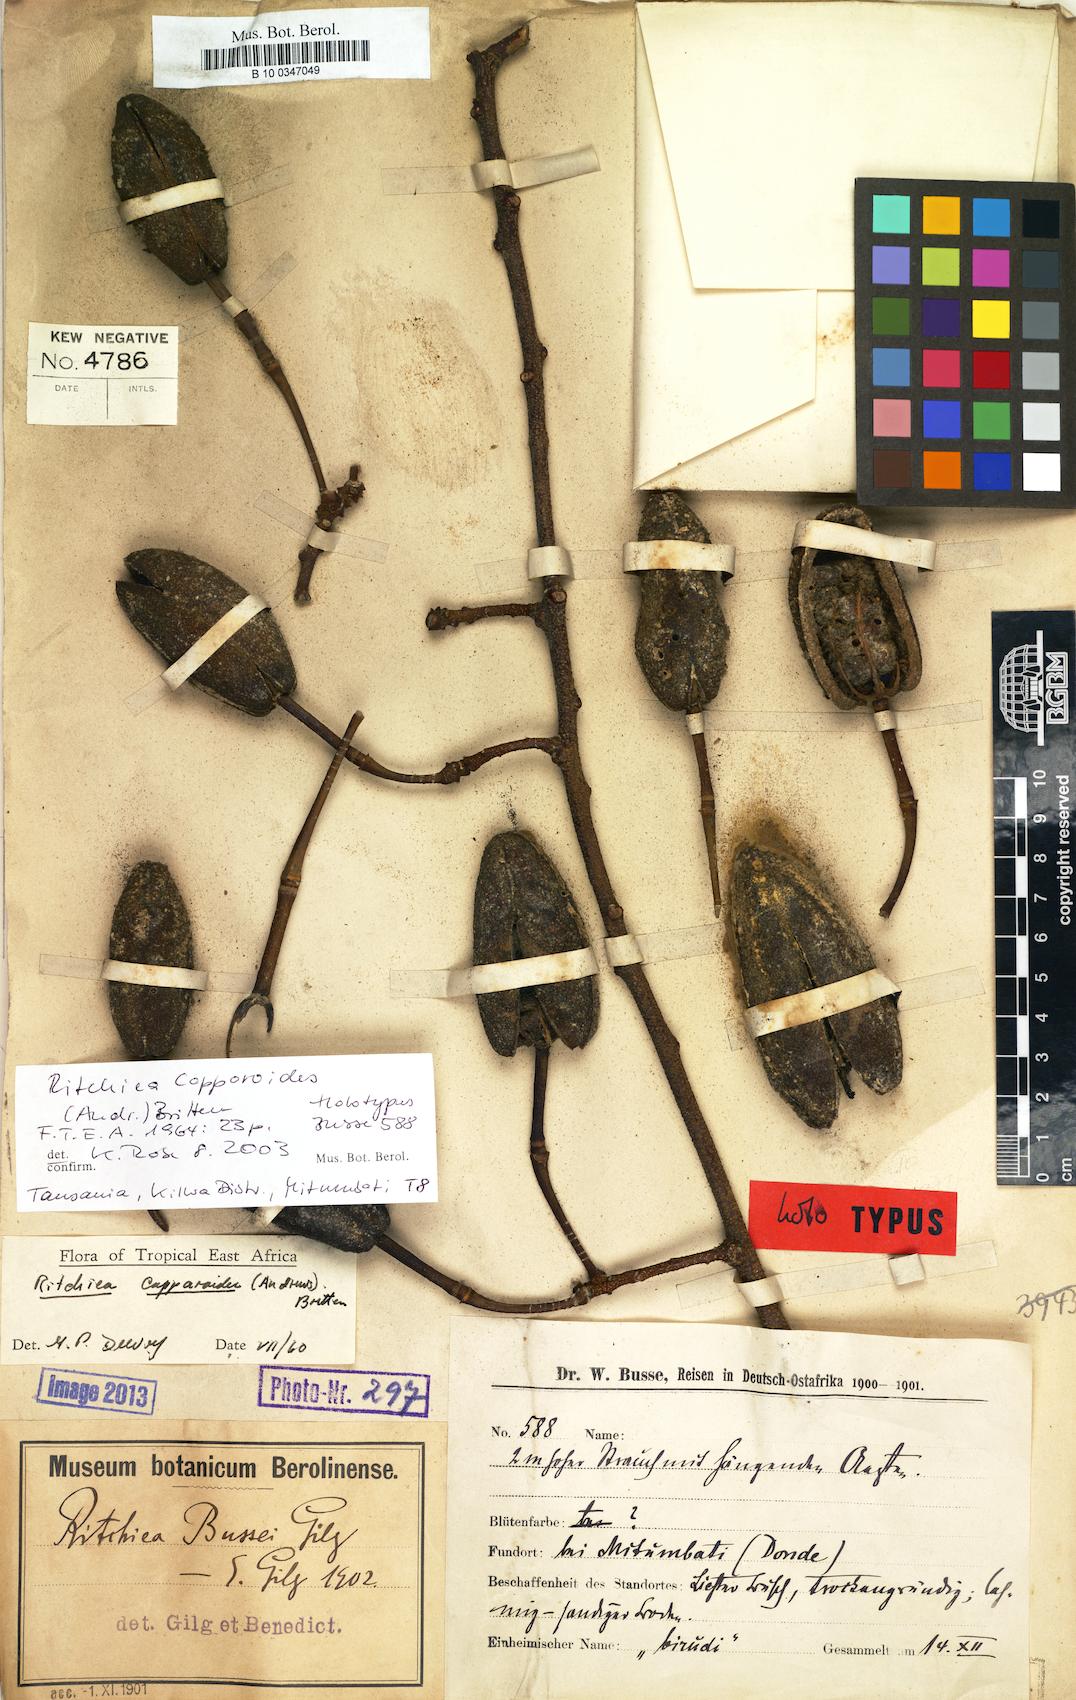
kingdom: Plantae
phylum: Tracheophyta
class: Magnoliopsida
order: Brassicales
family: Capparaceae
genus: Ritchiea
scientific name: Ritchiea capparoides
